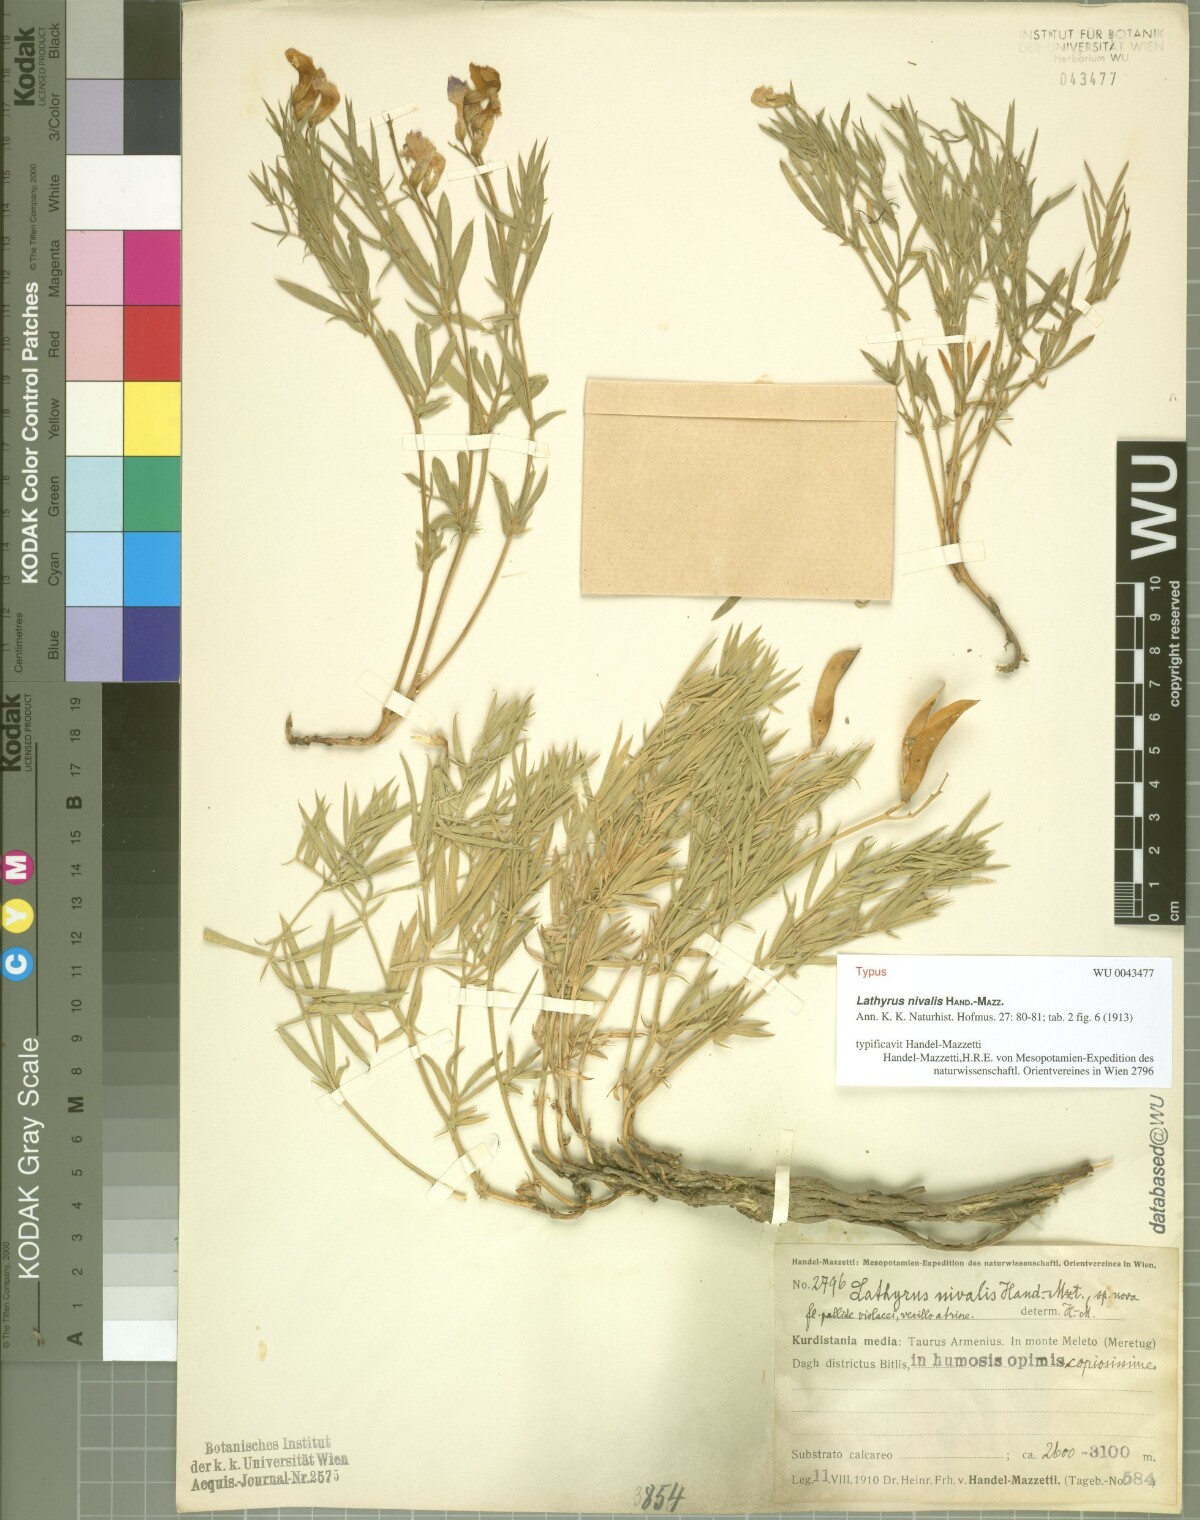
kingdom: Plantae
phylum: Tracheophyta
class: Magnoliopsida
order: Fabales
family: Fabaceae
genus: Lathyrus
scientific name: Lathyrus nivalis
